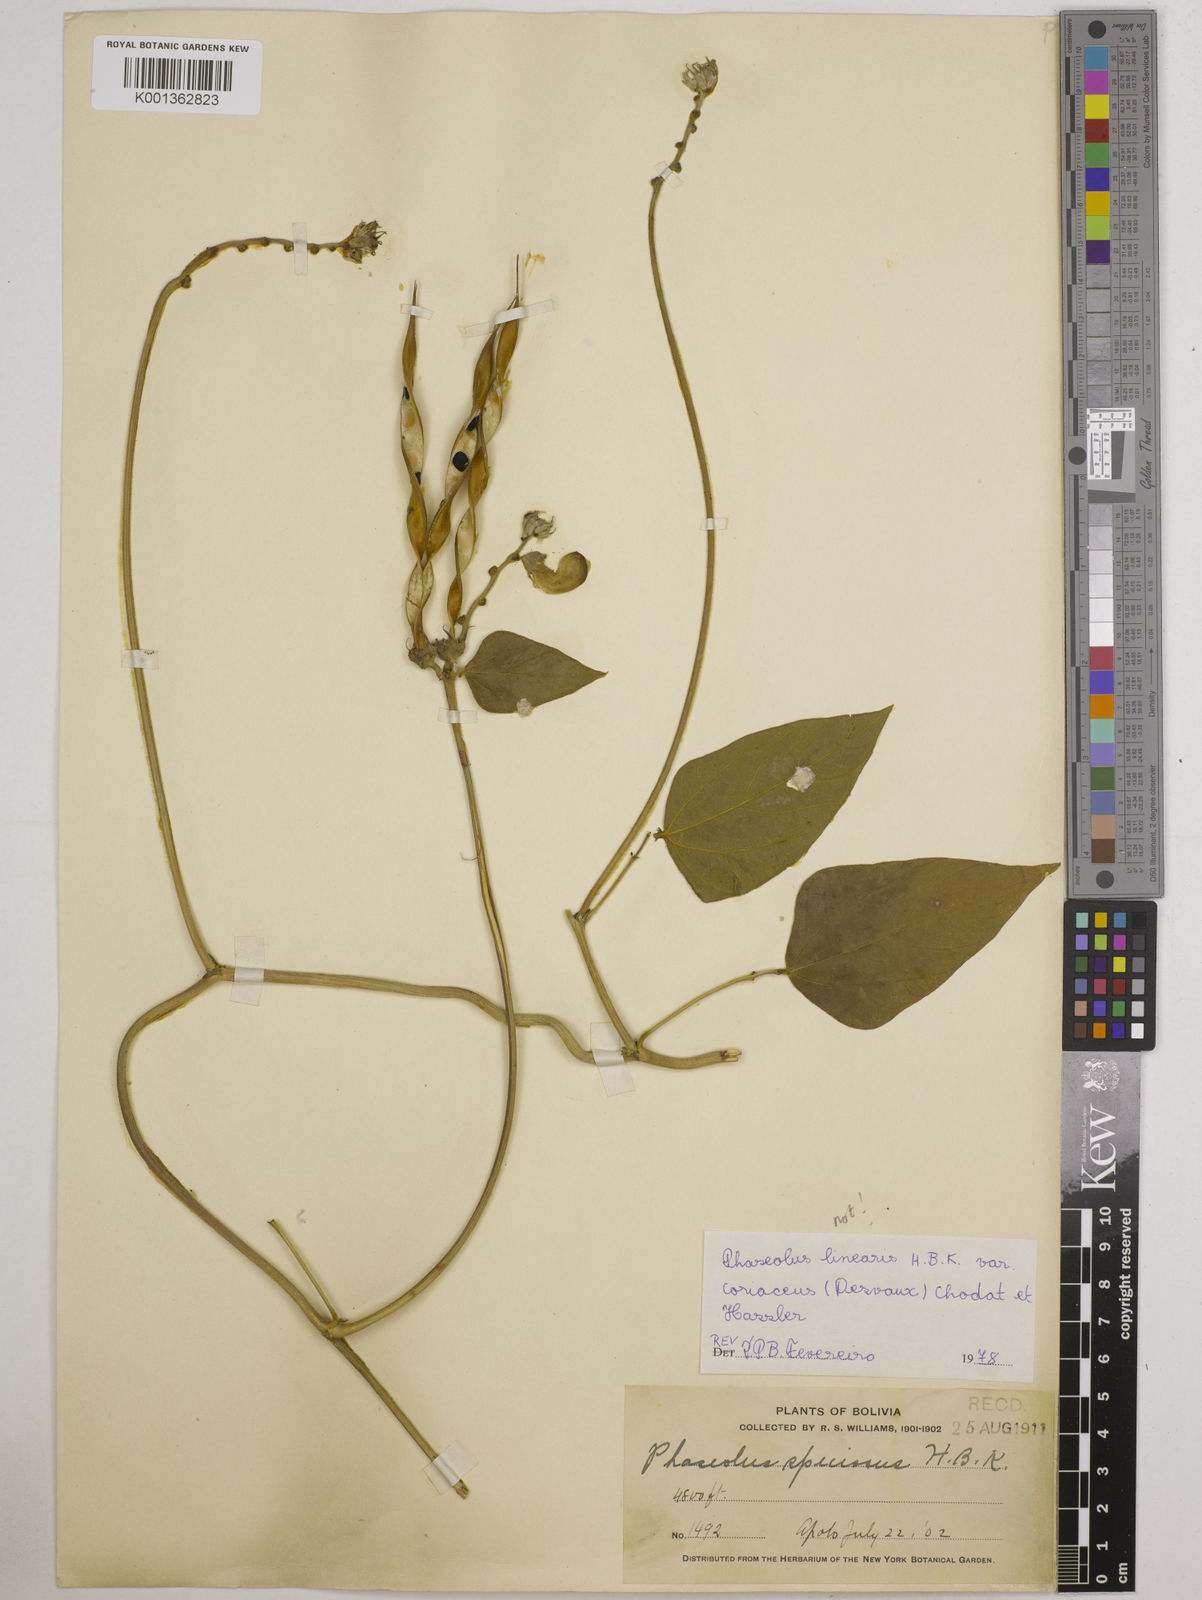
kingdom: Plantae
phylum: Tracheophyta
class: Magnoliopsida
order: Fabales
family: Fabaceae
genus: Vigna
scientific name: Vigna
